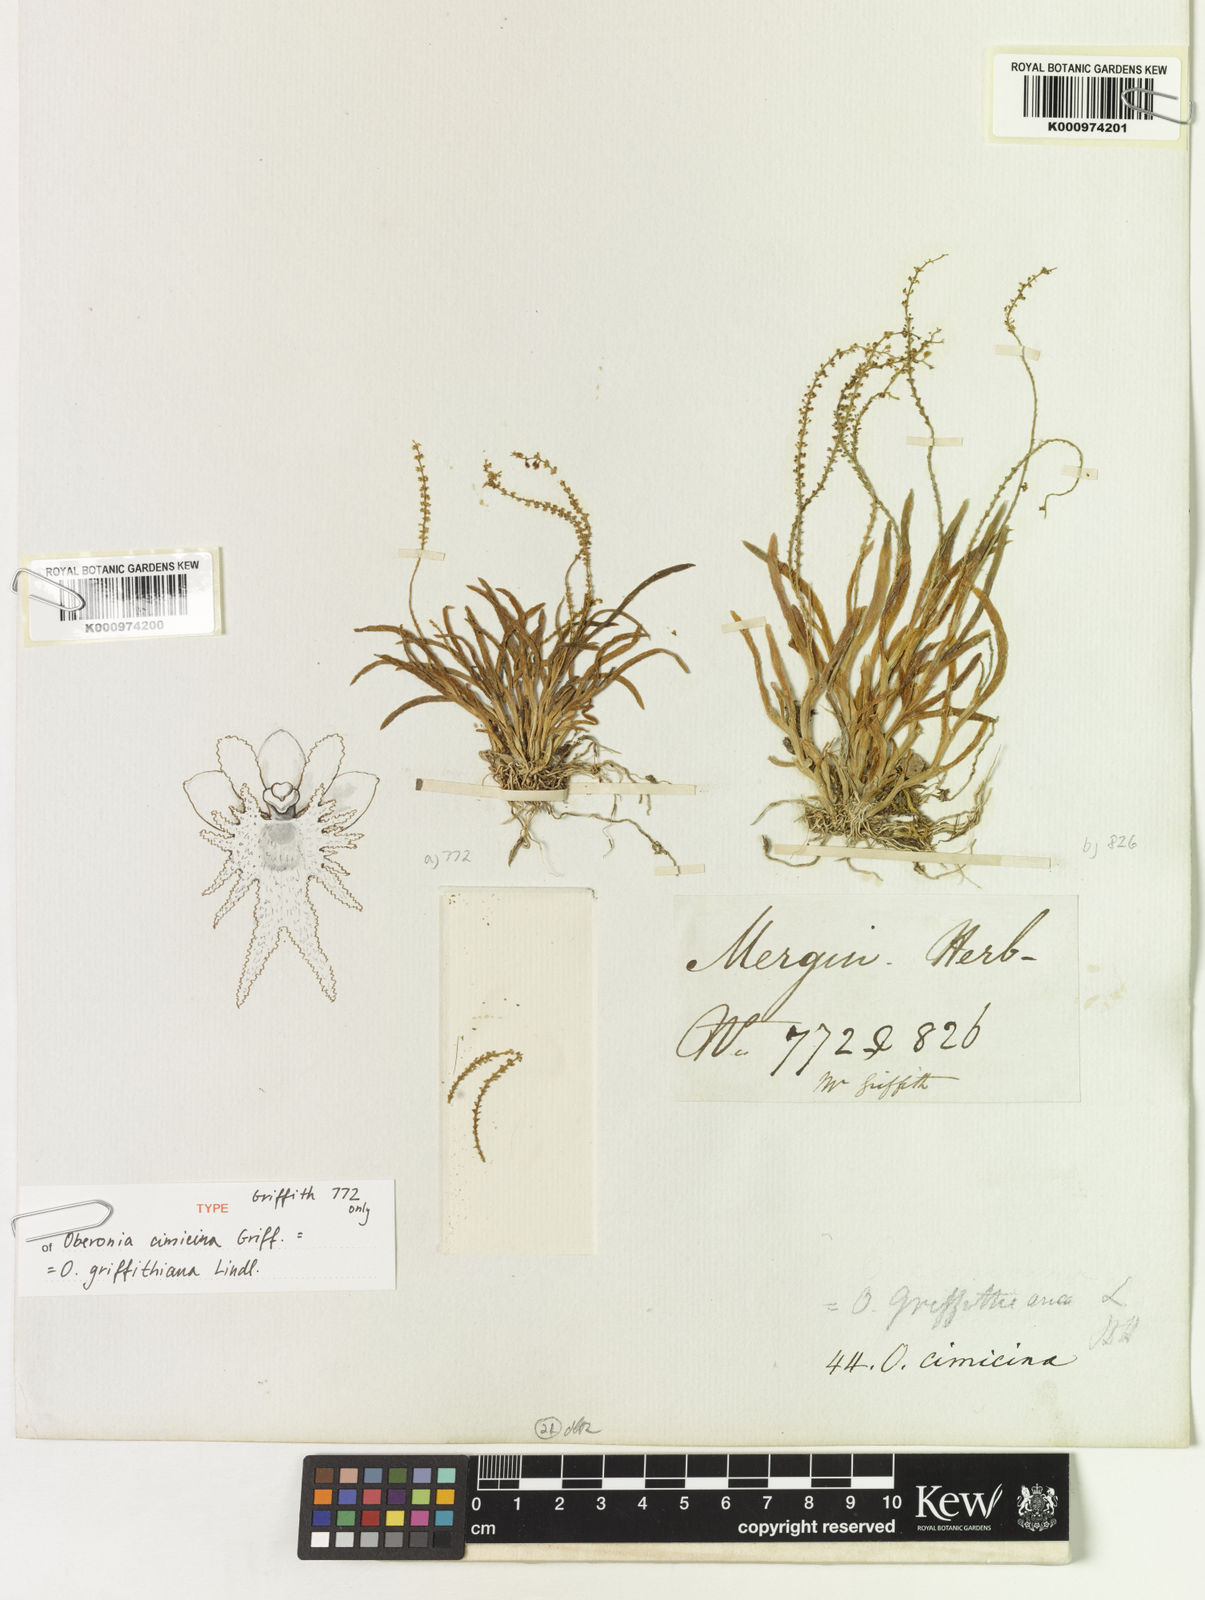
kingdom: Plantae
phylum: Tracheophyta
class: Liliopsida
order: Asparagales
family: Orchidaceae
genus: Oberonia
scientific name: Oberonia griffithiana
